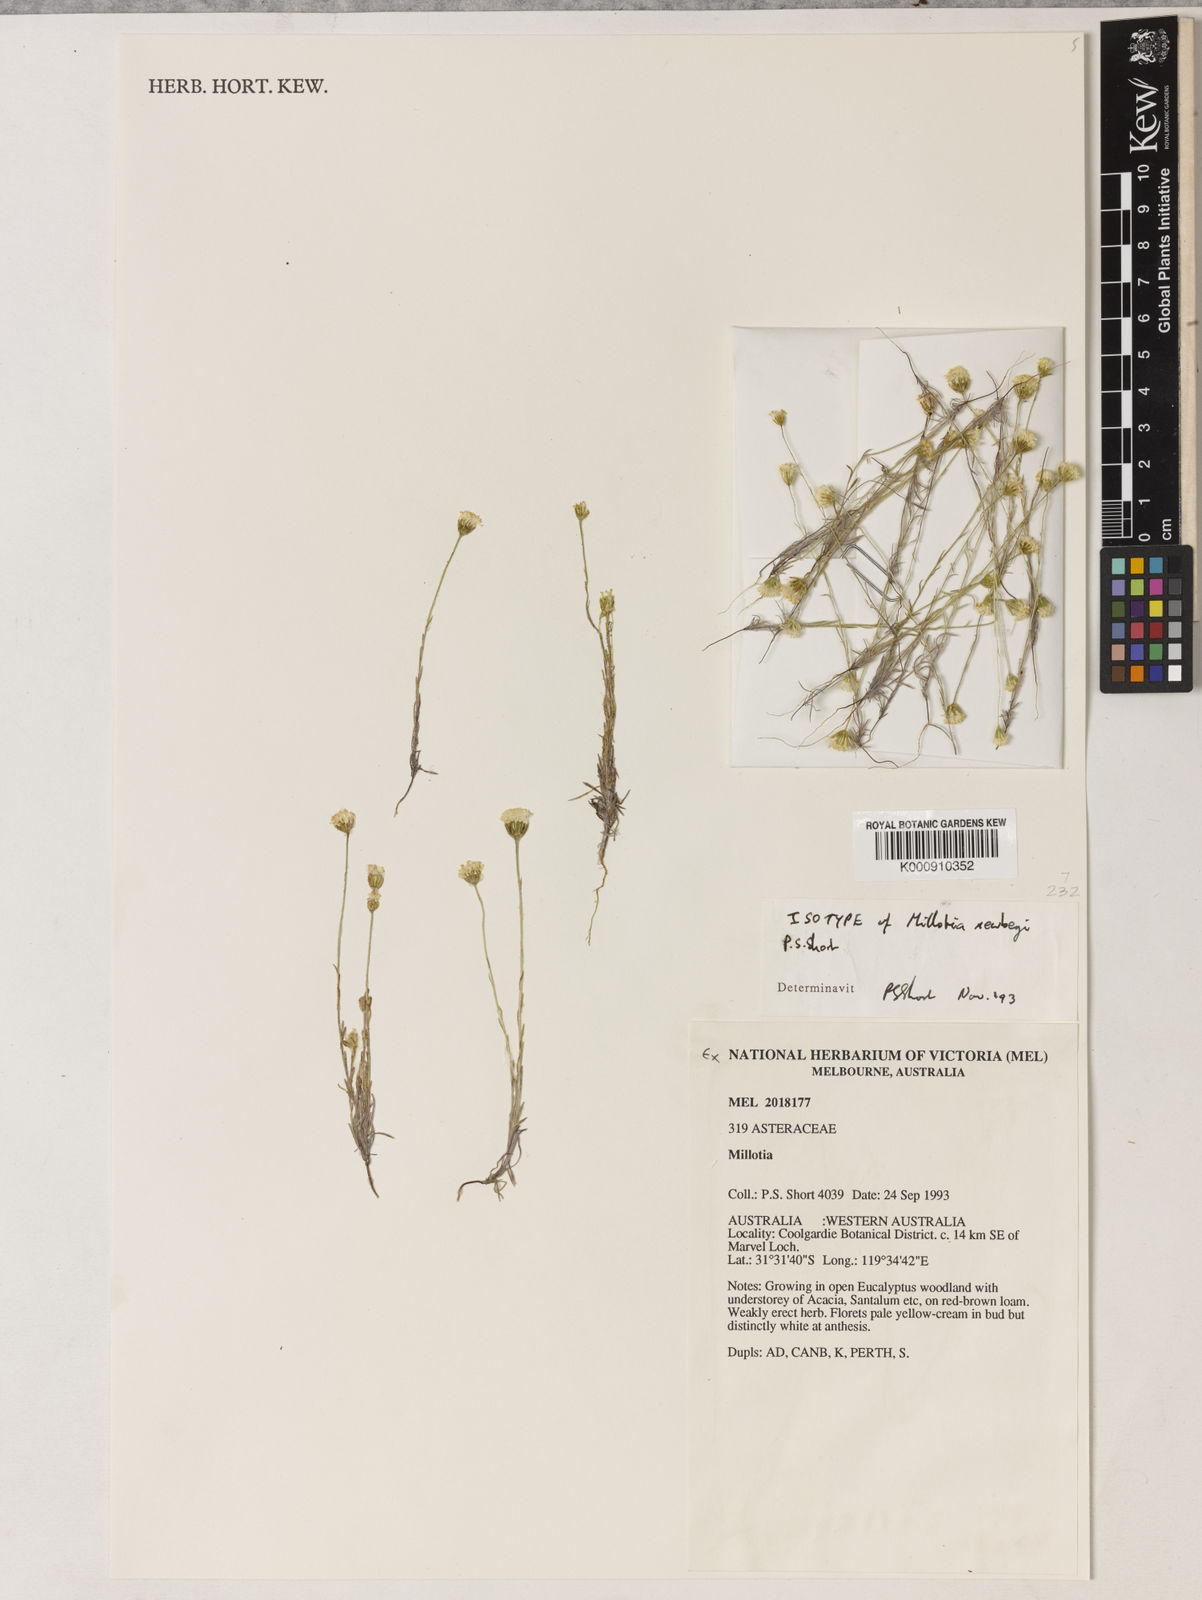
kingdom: Plantae
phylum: Tracheophyta
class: Magnoliopsida
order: Asterales
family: Asteraceae
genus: Millotia
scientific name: Millotia newbeyi
